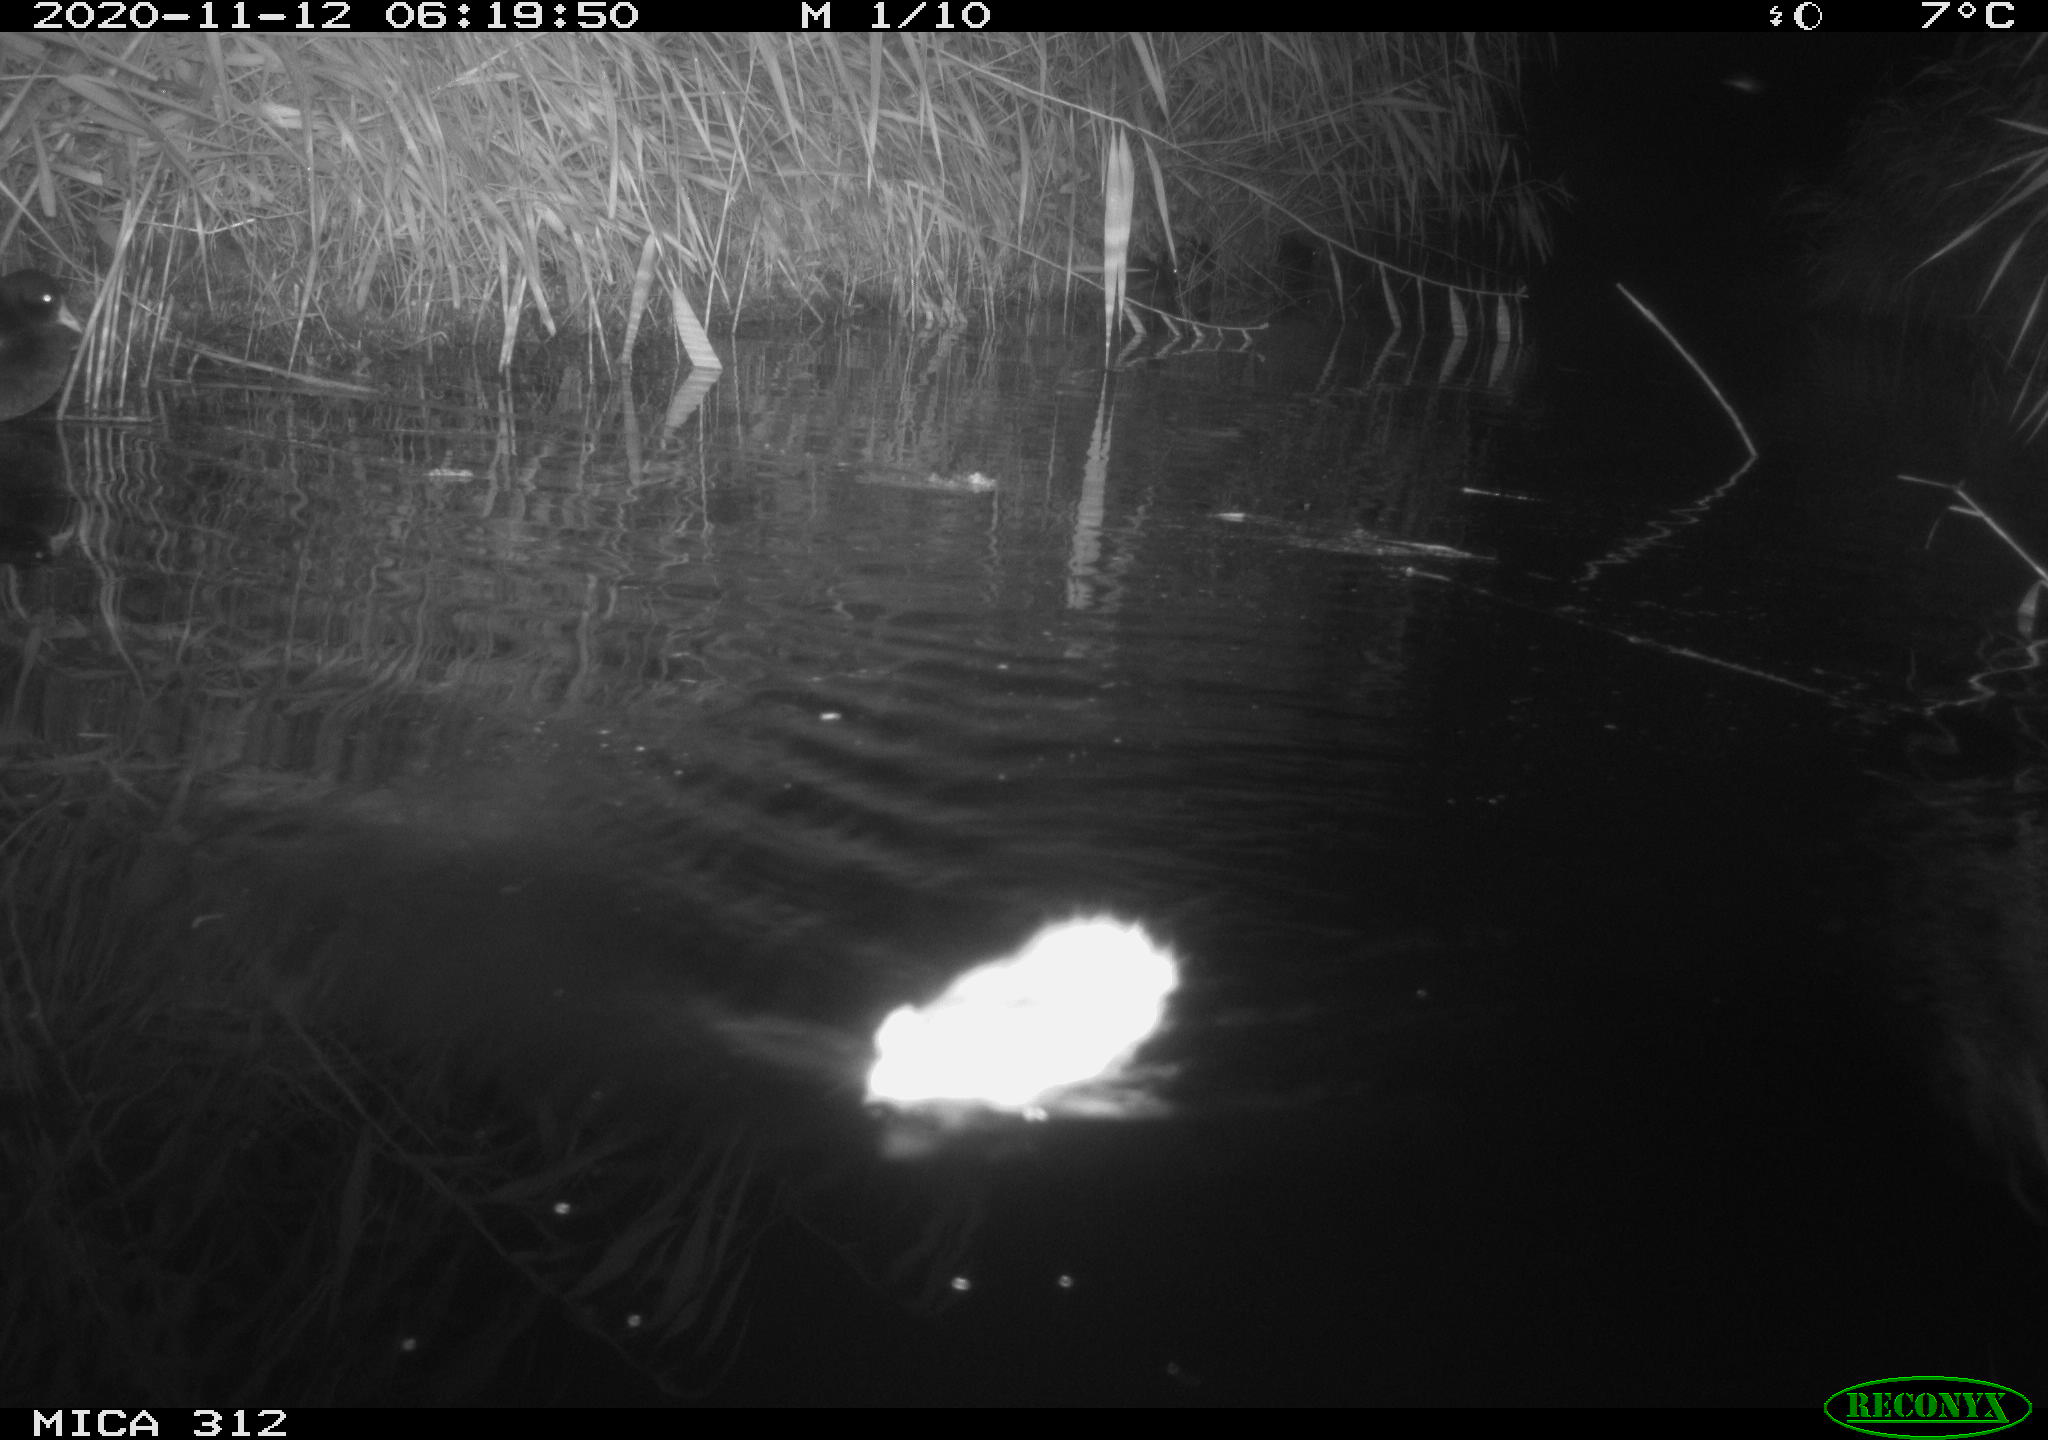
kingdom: Animalia
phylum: Chordata
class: Mammalia
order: Rodentia
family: Muridae
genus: Rattus
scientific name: Rattus norvegicus
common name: Brown rat
